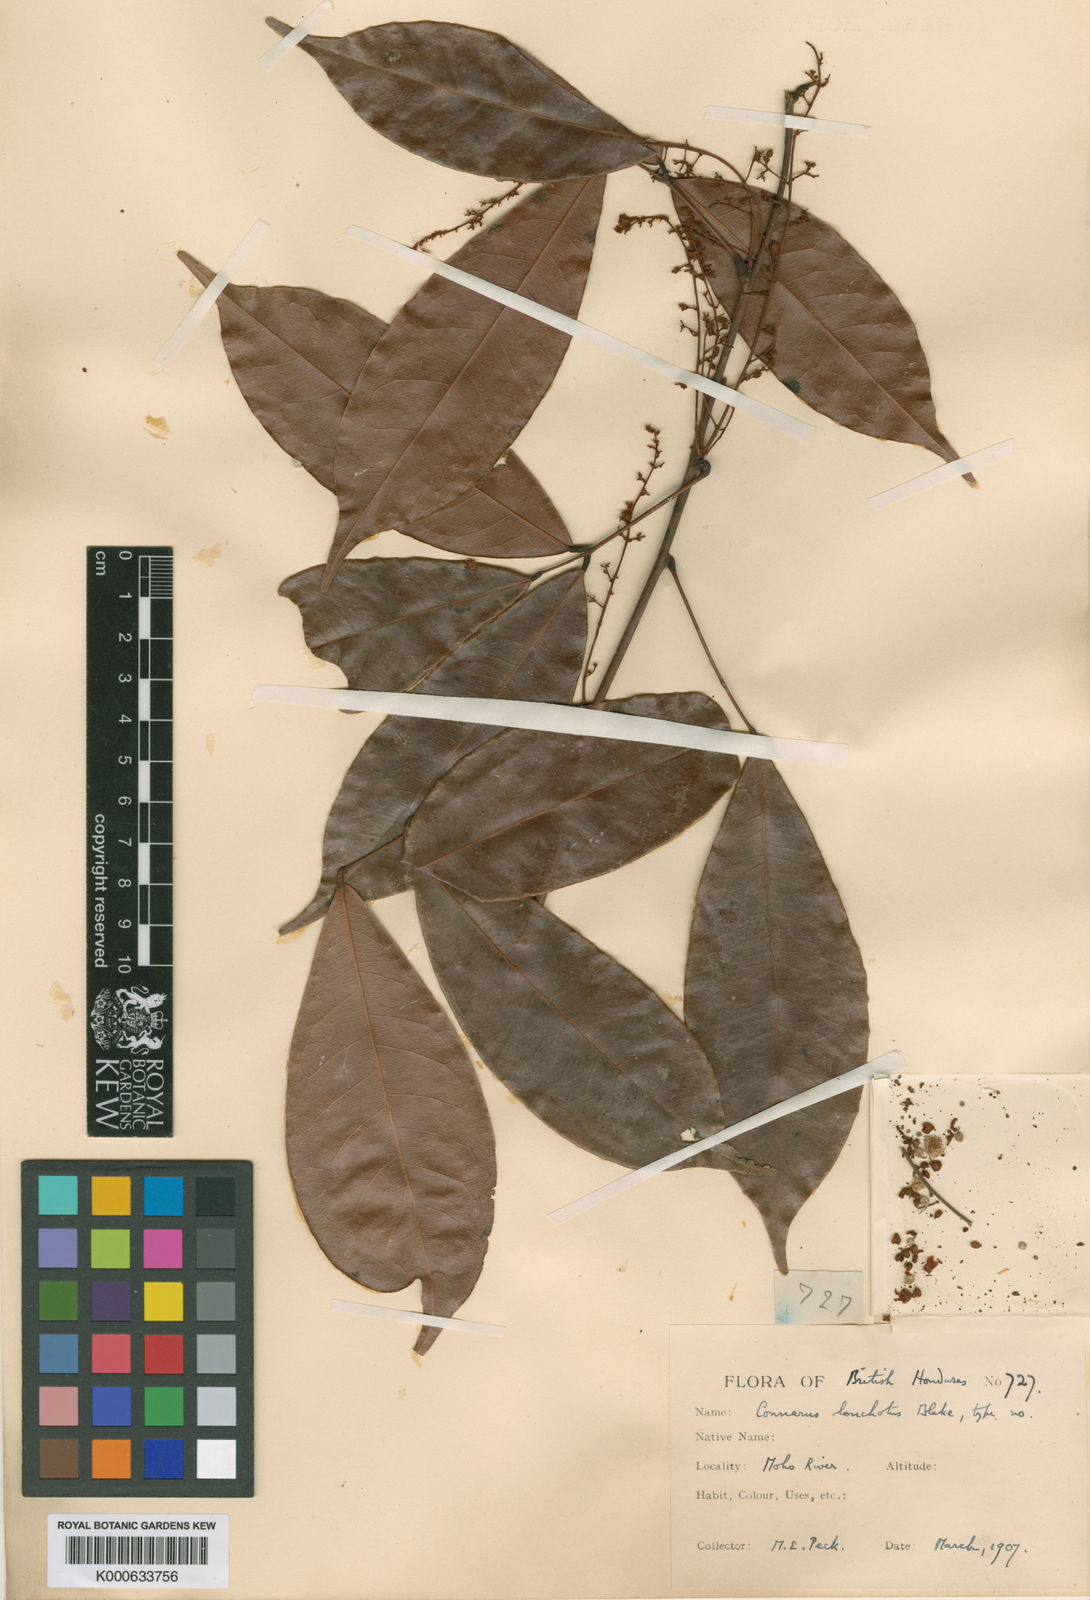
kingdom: Plantae
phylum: Tracheophyta
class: Magnoliopsida
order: Oxalidales
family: Connaraceae
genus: Connarus
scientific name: Connarus
